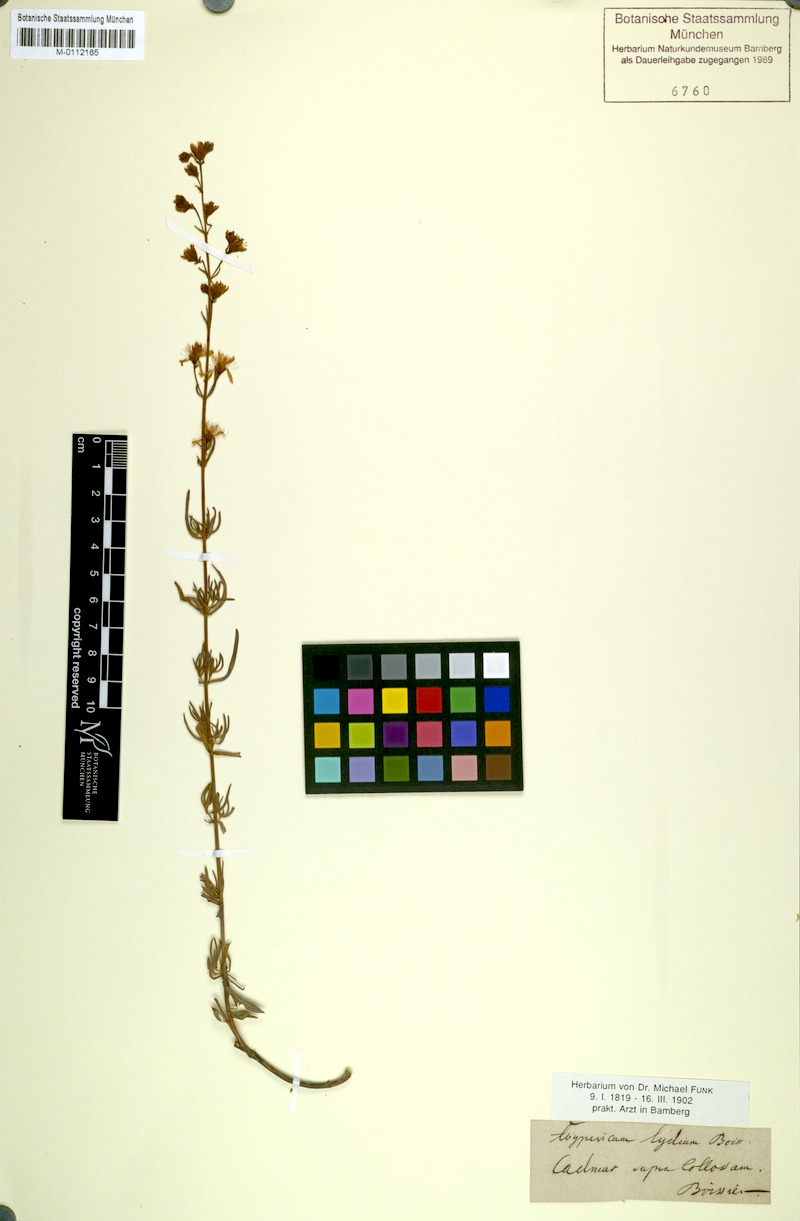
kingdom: Plantae
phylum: Tracheophyta
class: Magnoliopsida
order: Malpighiales
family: Hypericaceae
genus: Hypericum
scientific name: Hypericum lydium
